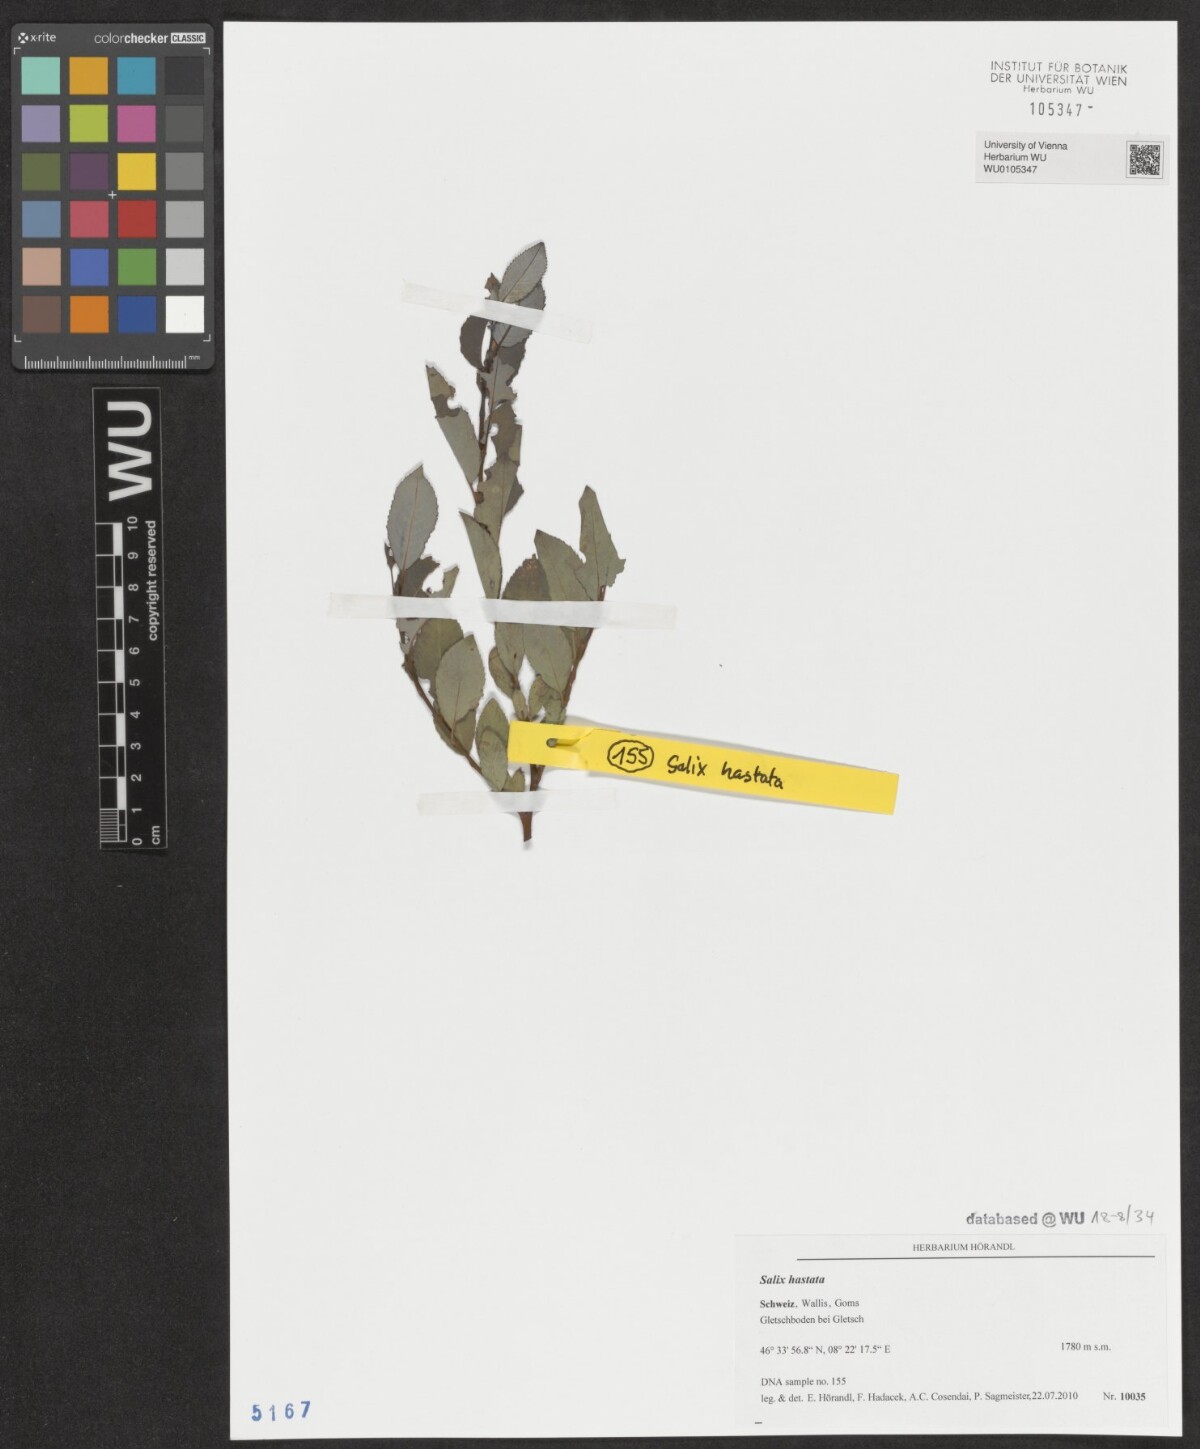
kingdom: Plantae
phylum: Tracheophyta
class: Magnoliopsida
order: Malpighiales
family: Salicaceae
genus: Salix
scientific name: Salix hastata
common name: Halberd willow
